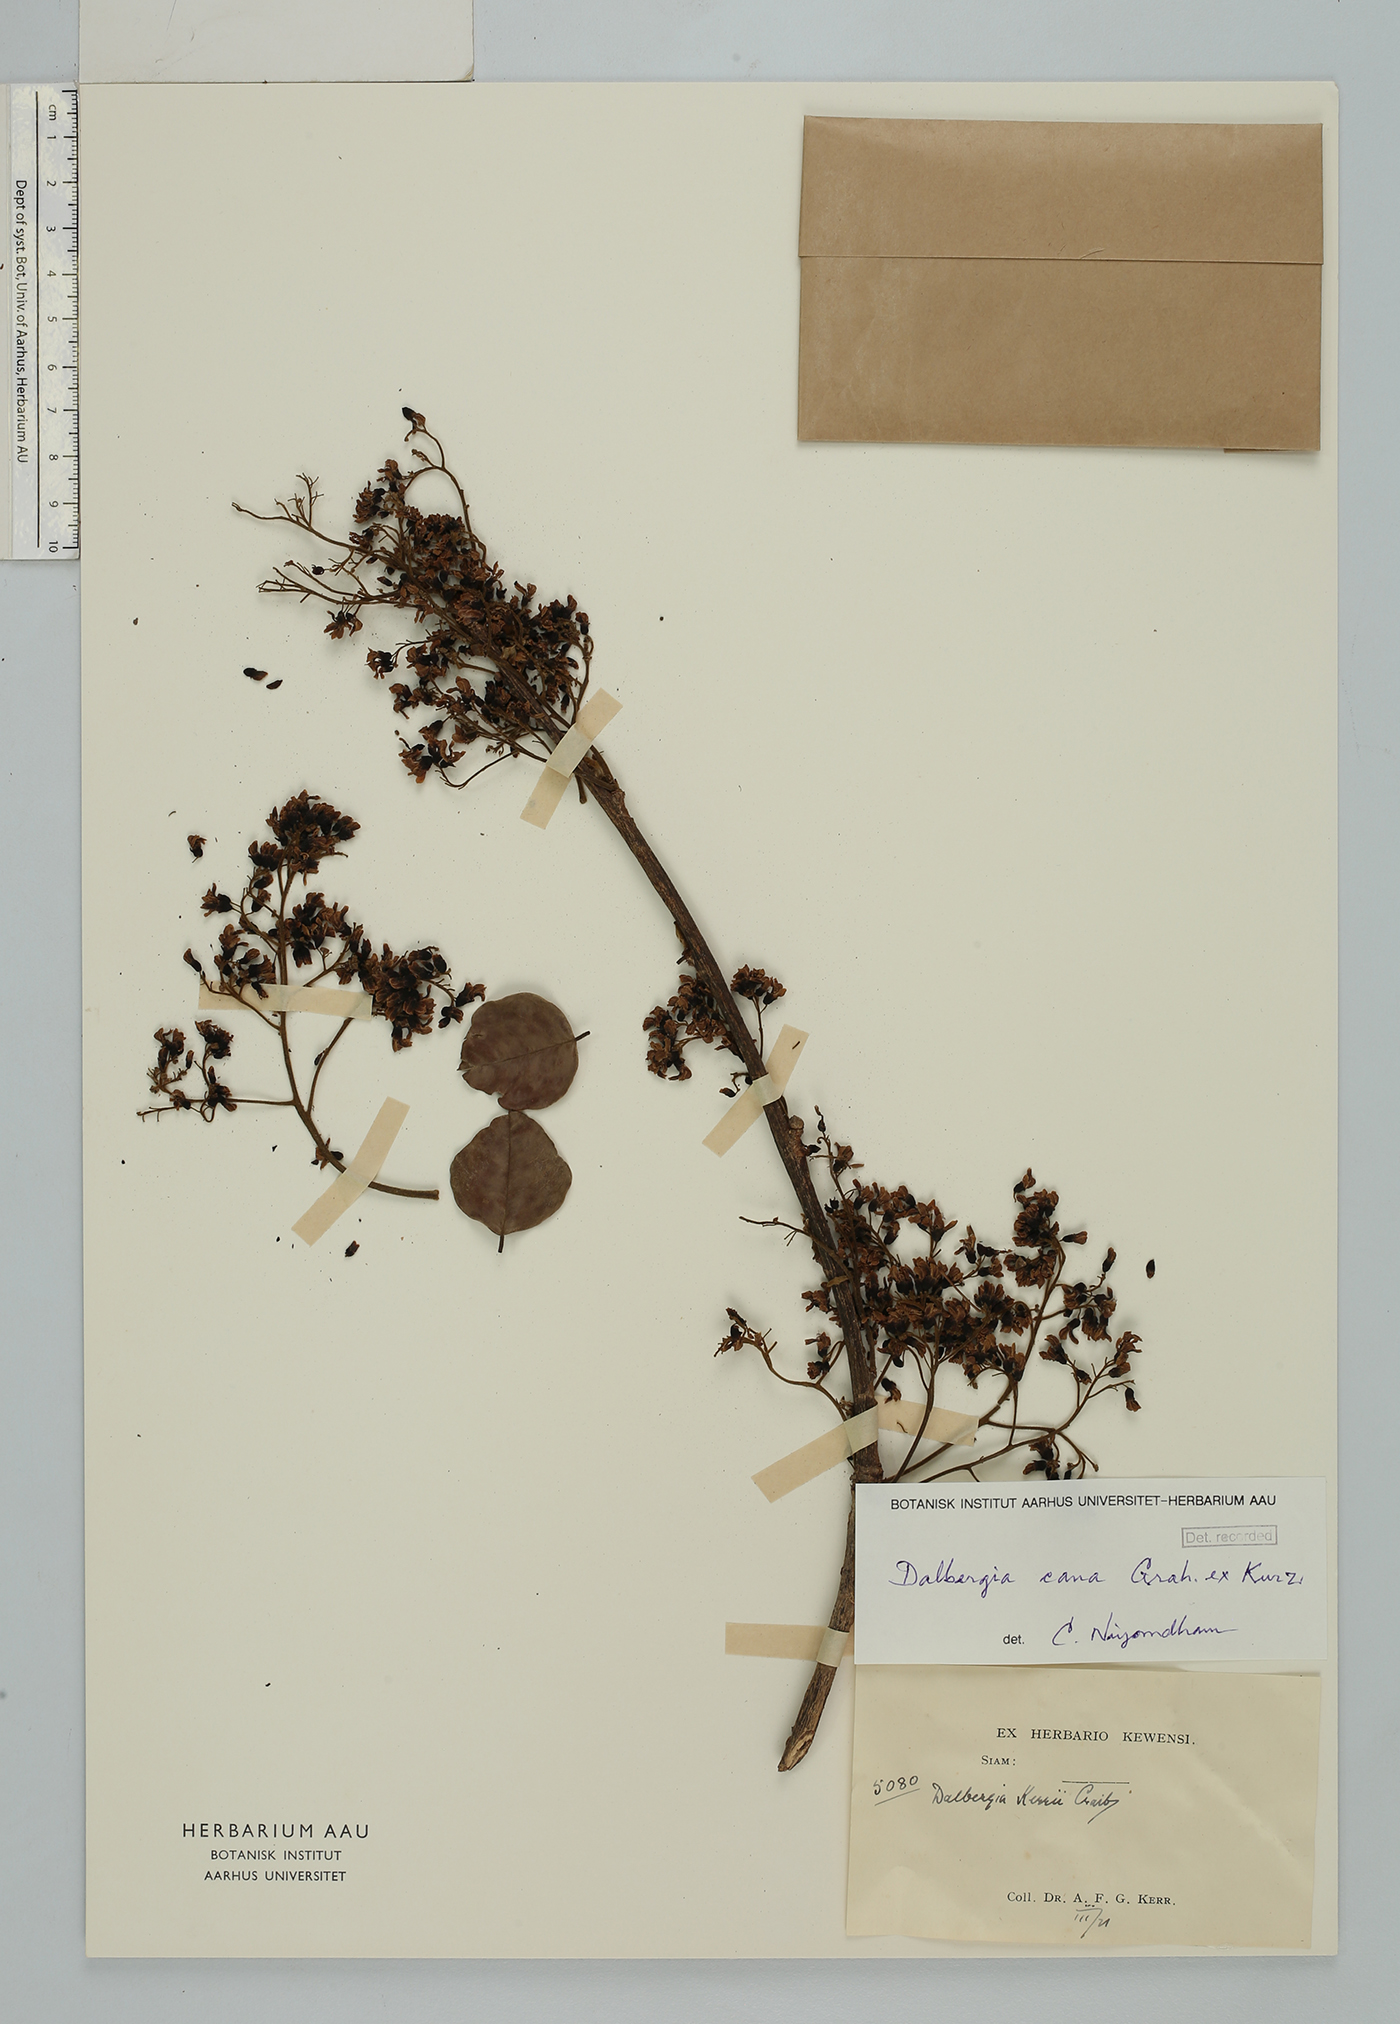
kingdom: Plantae
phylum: Tracheophyta
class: Magnoliopsida
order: Fabales
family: Fabaceae
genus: Dalbergia
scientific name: Dalbergia cana
